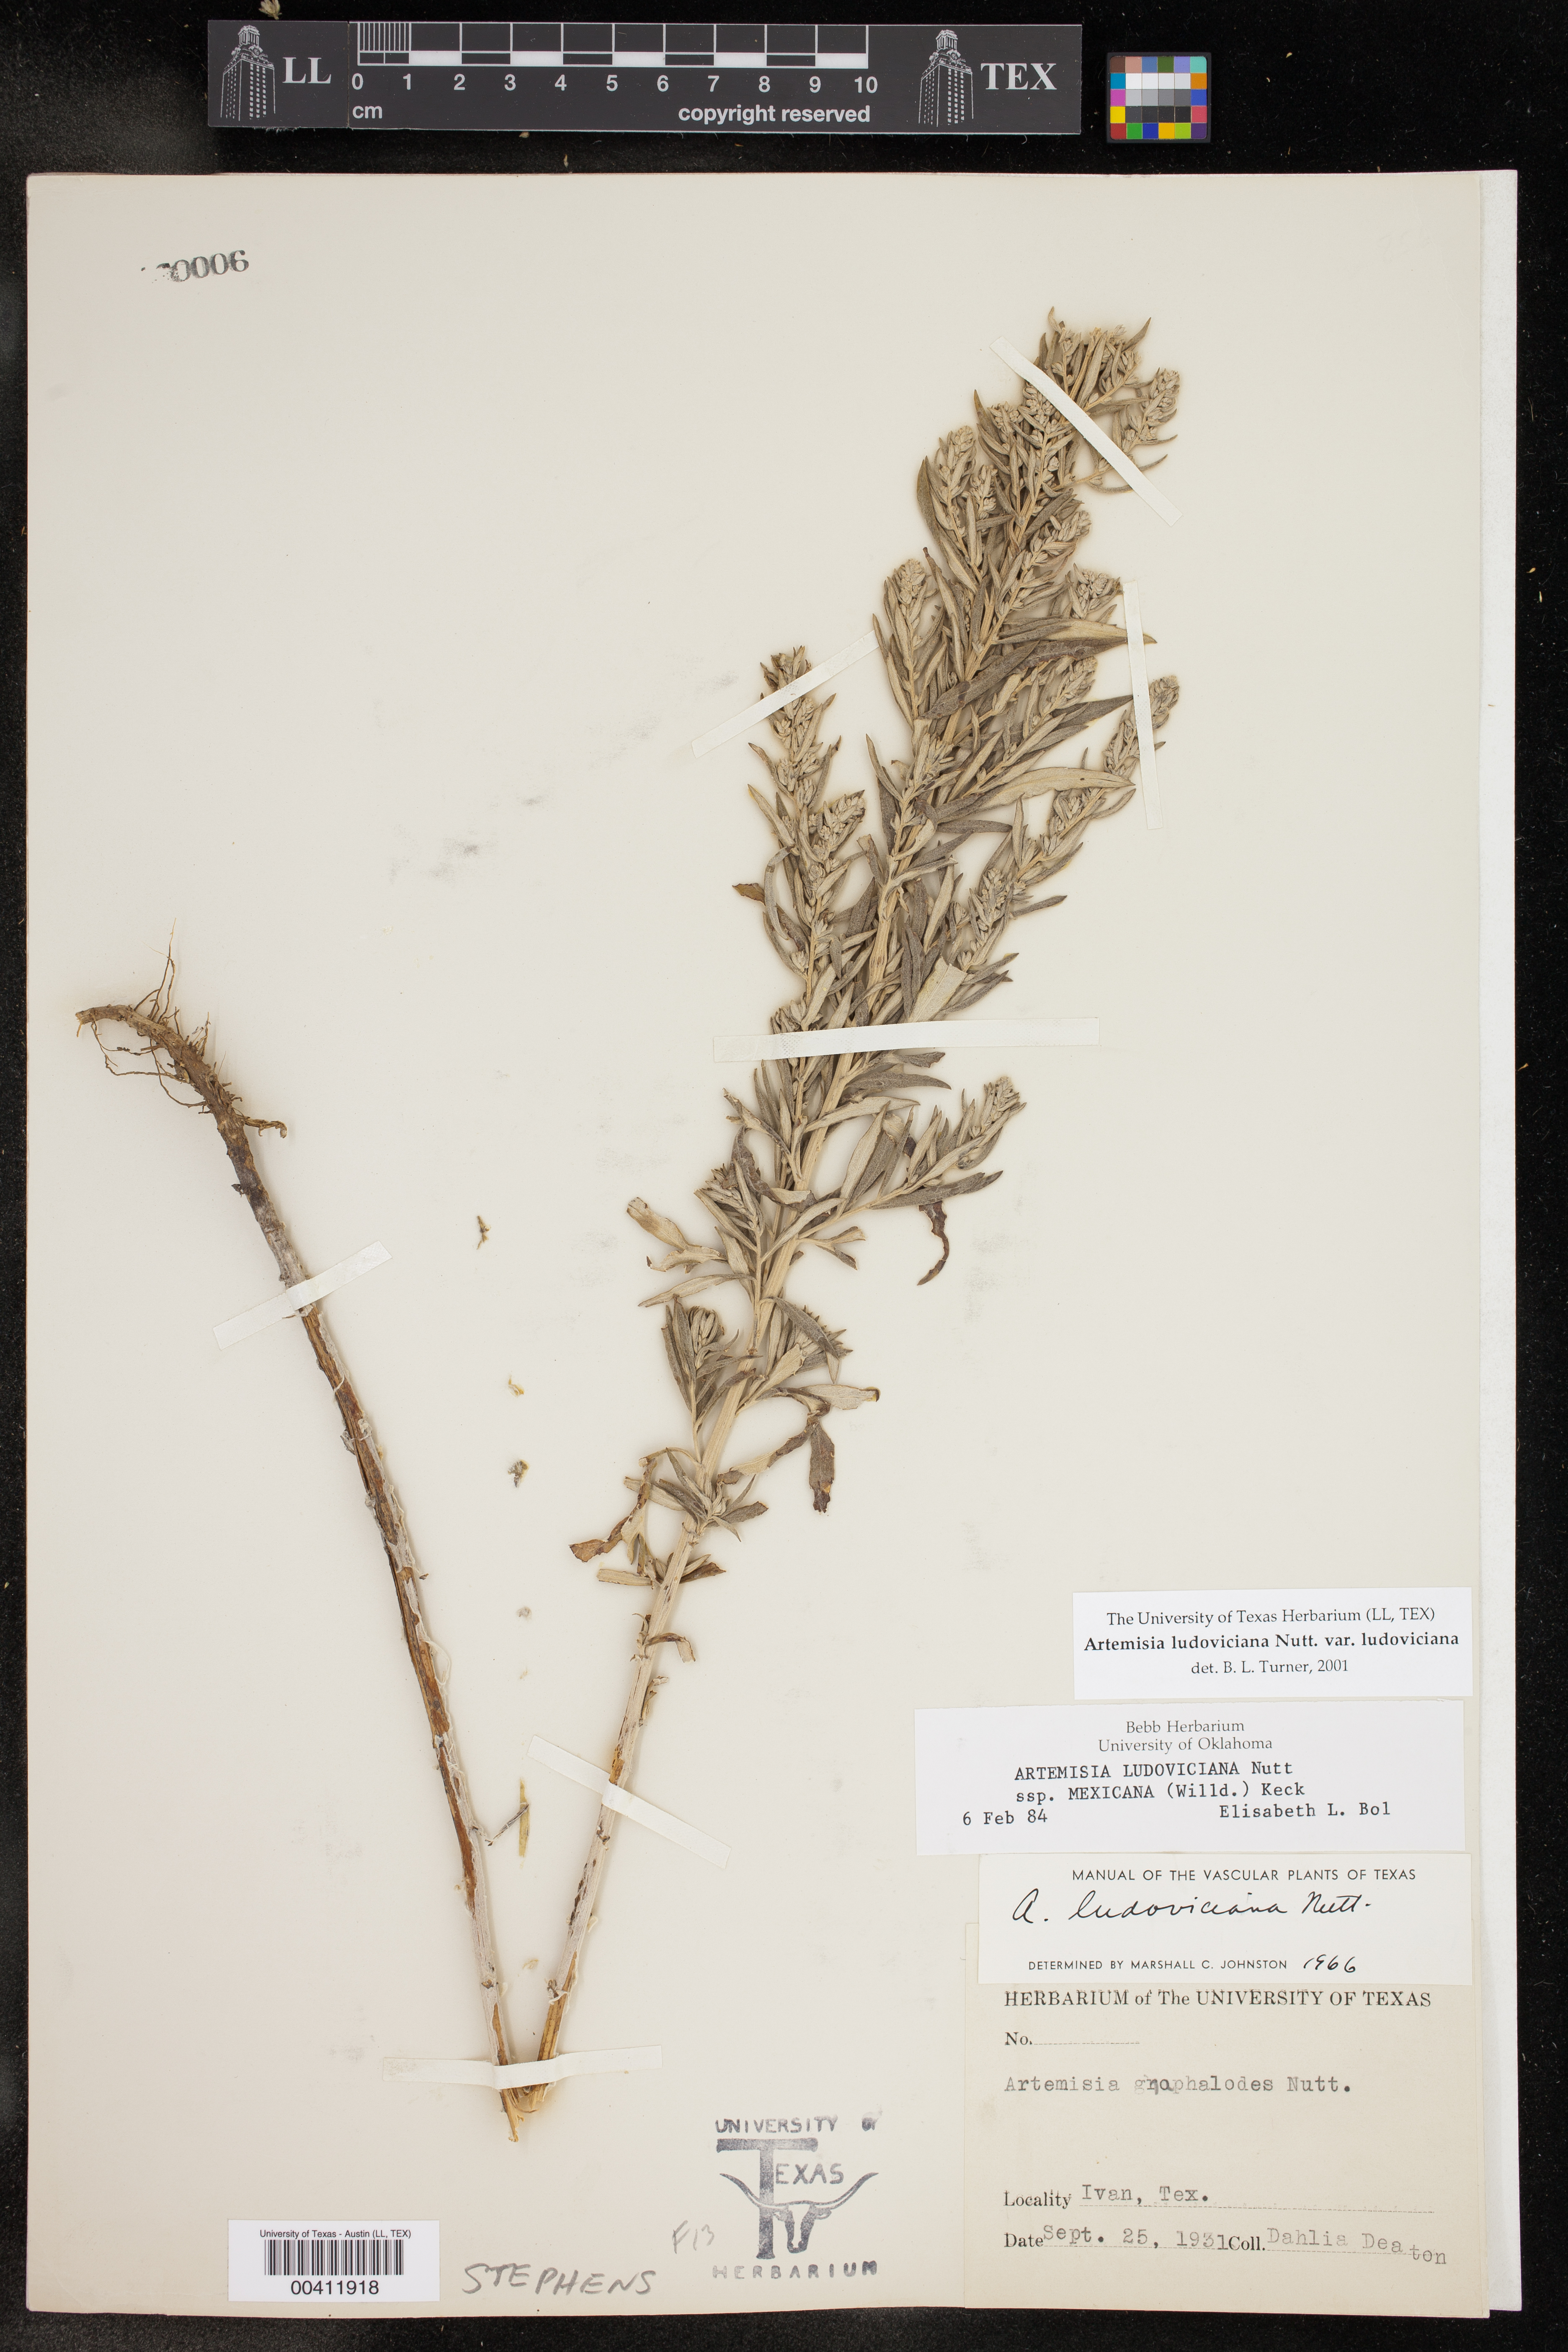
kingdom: Plantae
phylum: Tracheophyta
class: Magnoliopsida
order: Asterales
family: Asteraceae
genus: Artemisia
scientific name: Artemisia ludoviciana
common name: Western mugwort
